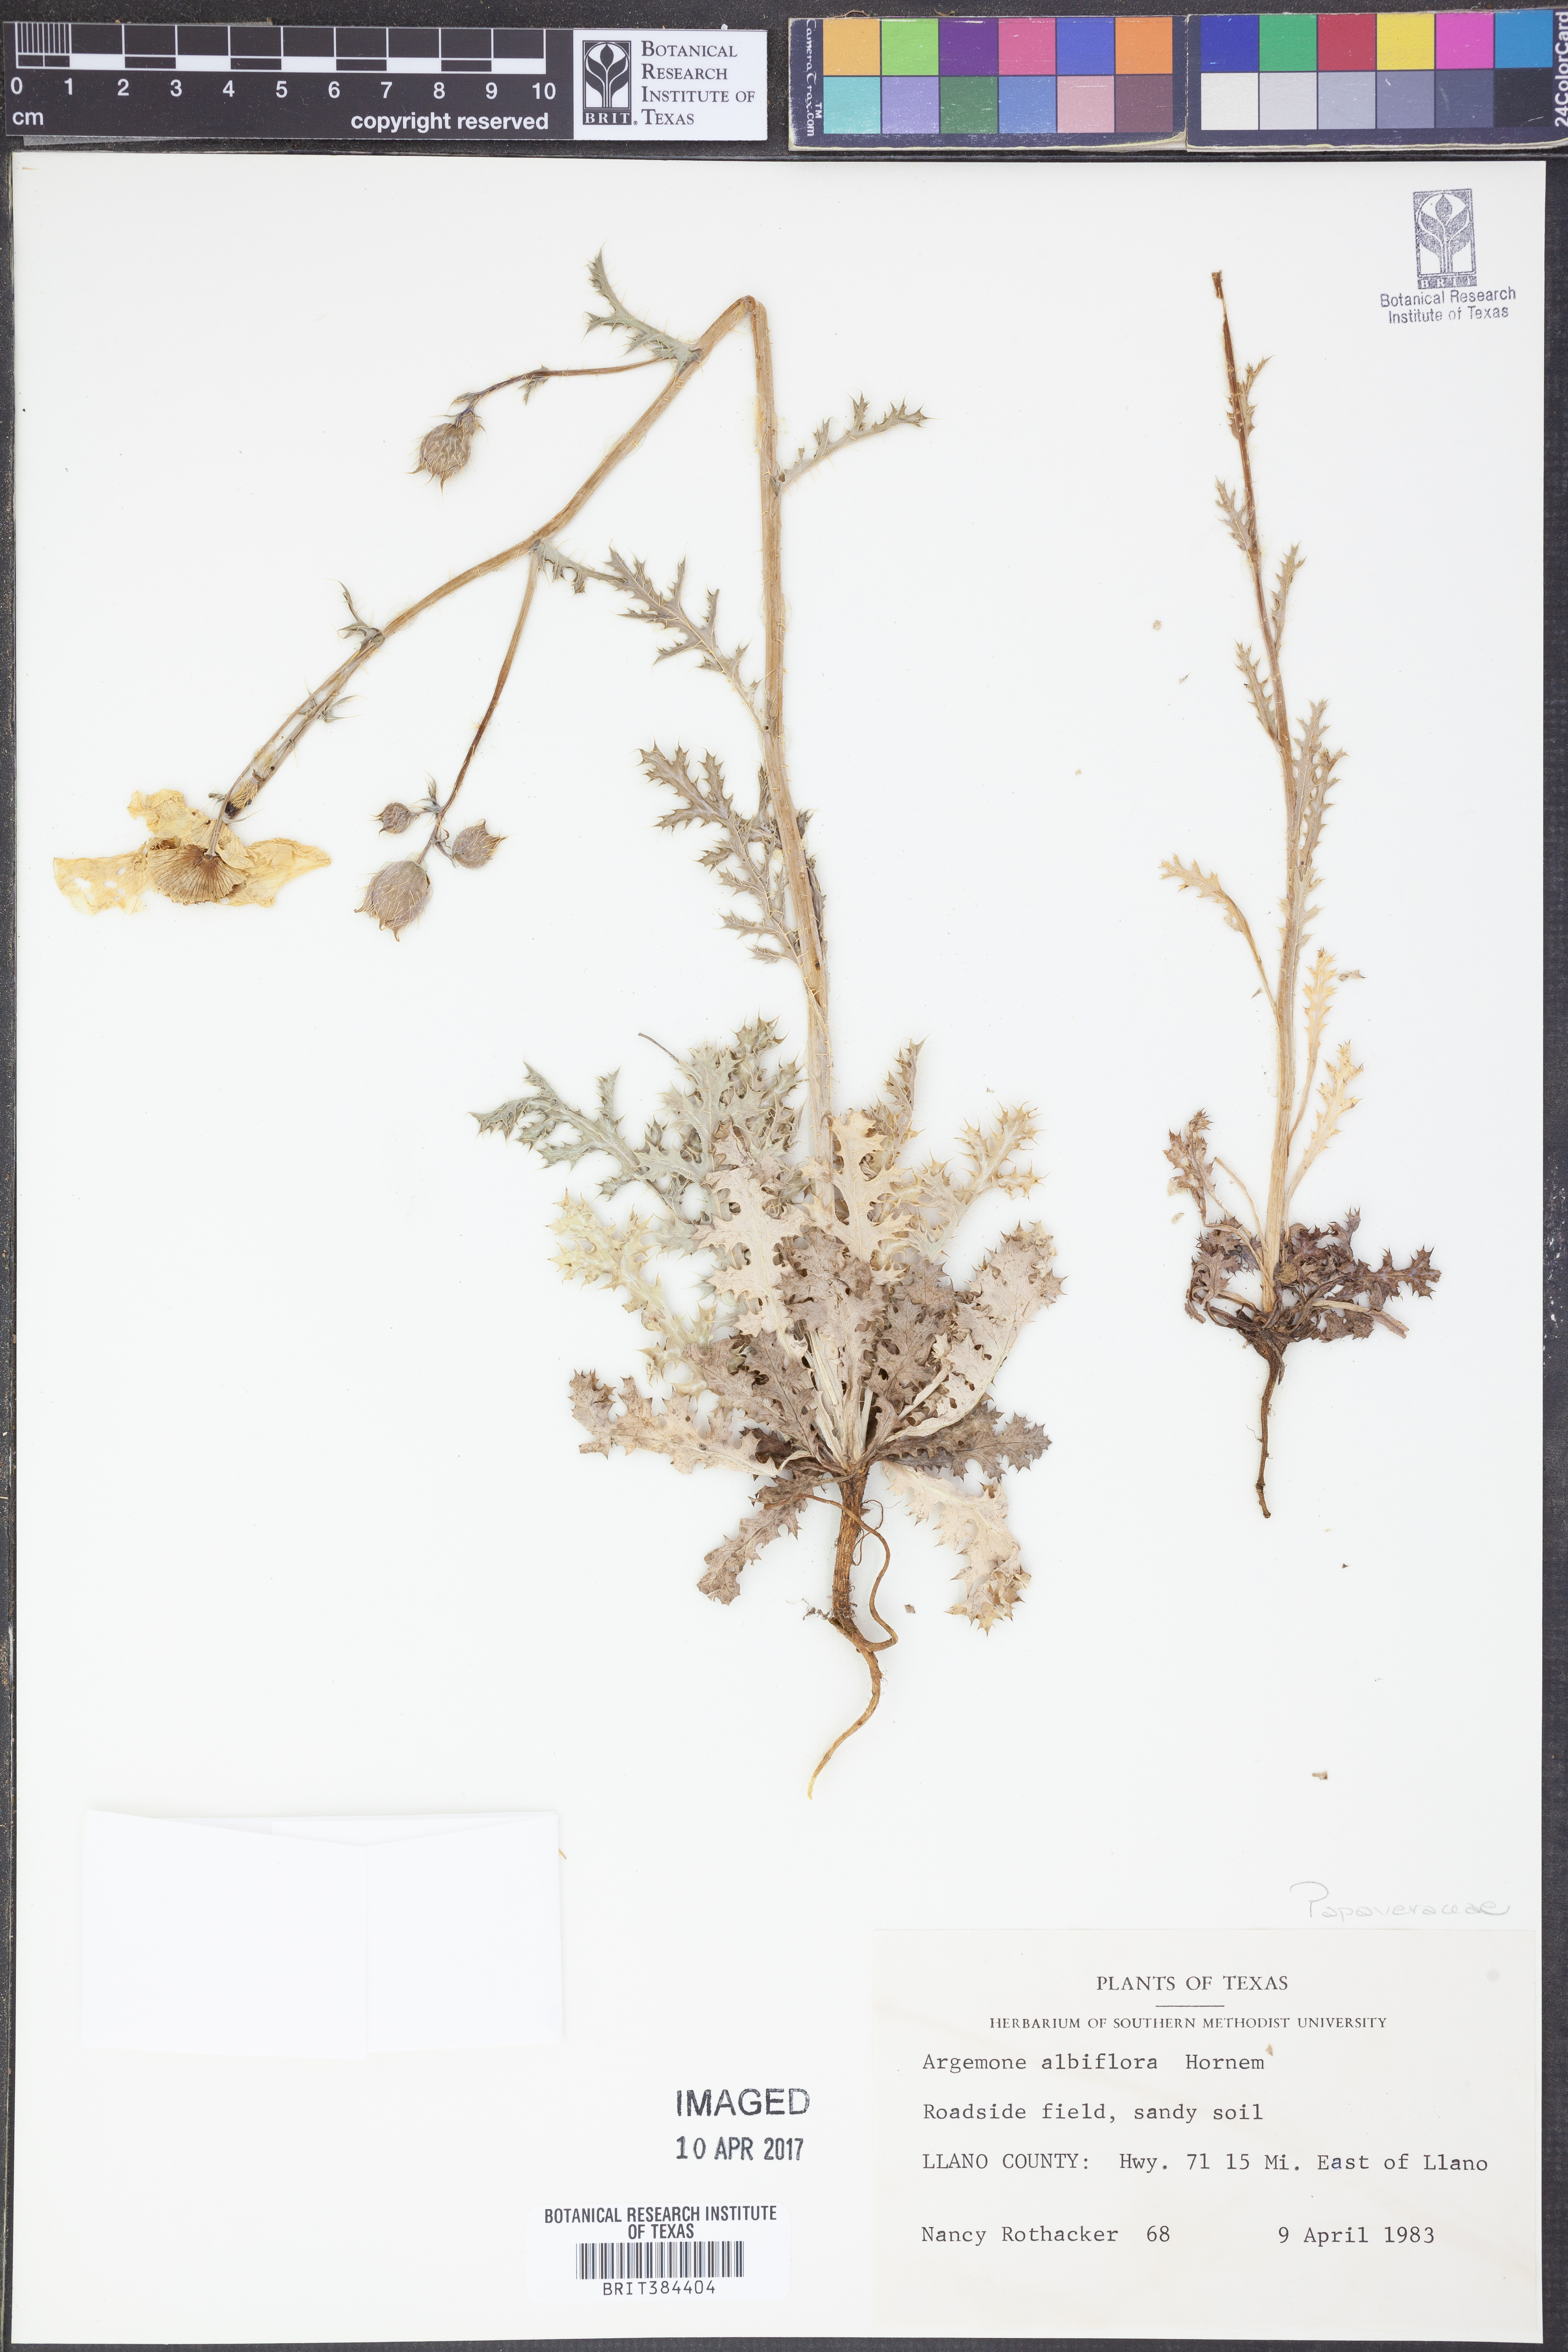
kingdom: Plantae
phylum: Tracheophyta
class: Magnoliopsida
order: Ranunculales
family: Papaveraceae
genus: Argemone
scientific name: Argemone albiflora
